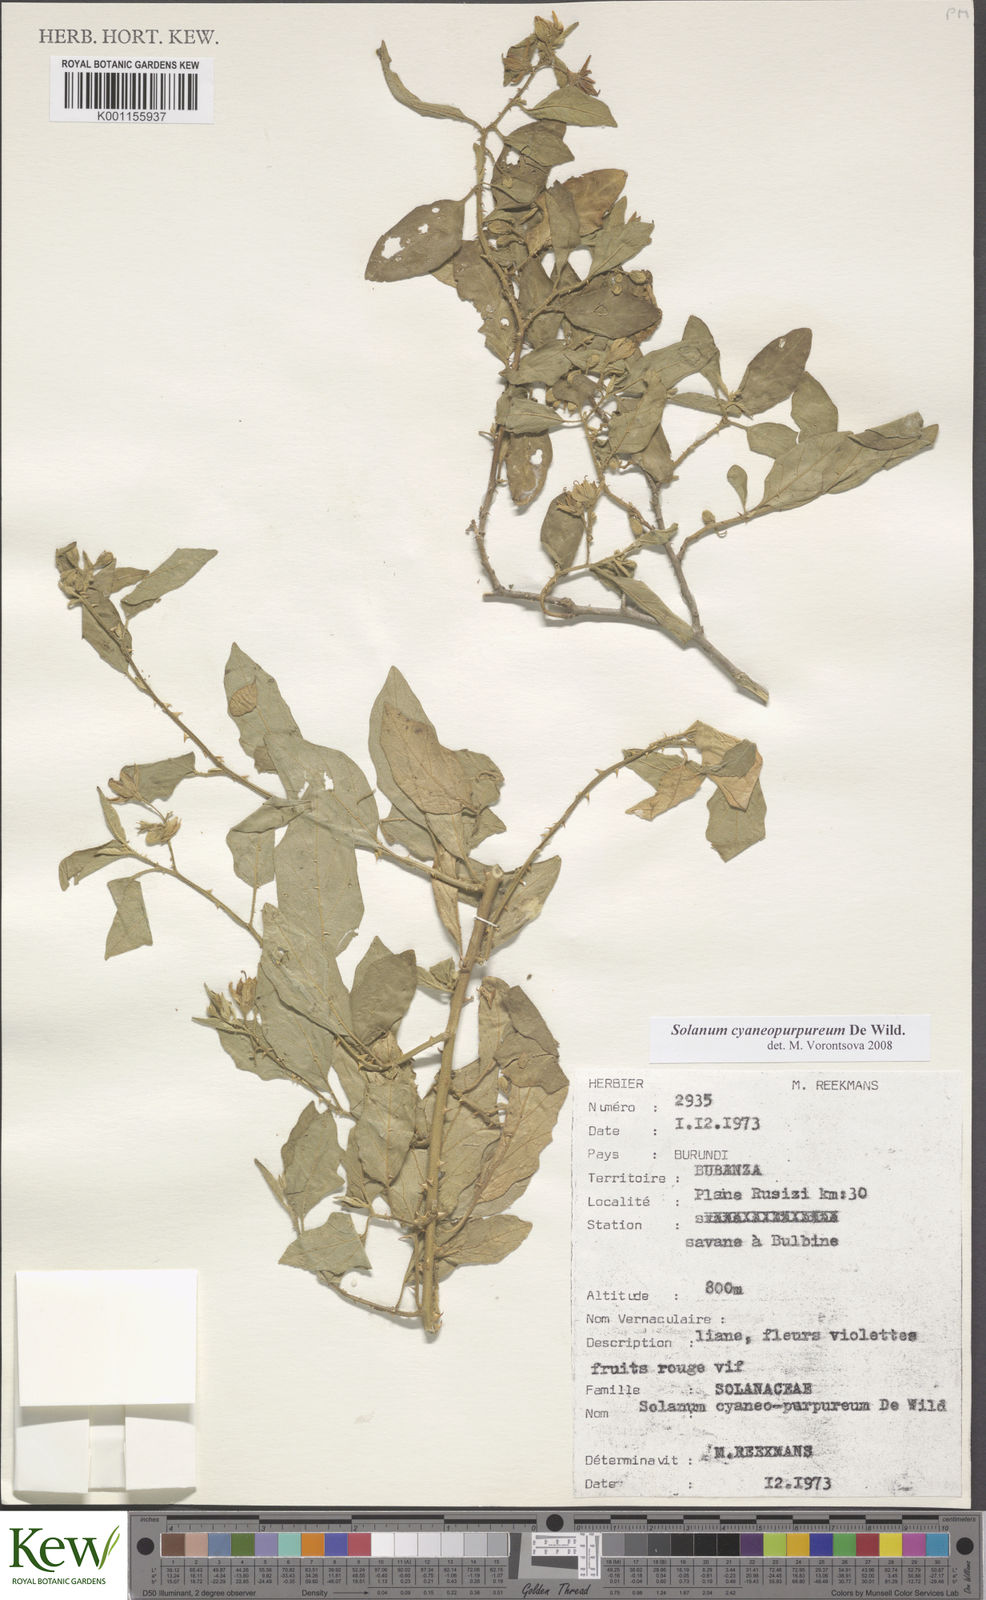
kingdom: Plantae
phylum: Tracheophyta
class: Magnoliopsida
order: Solanales
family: Solanaceae
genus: Solanum
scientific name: Solanum cyaneopurpureum
